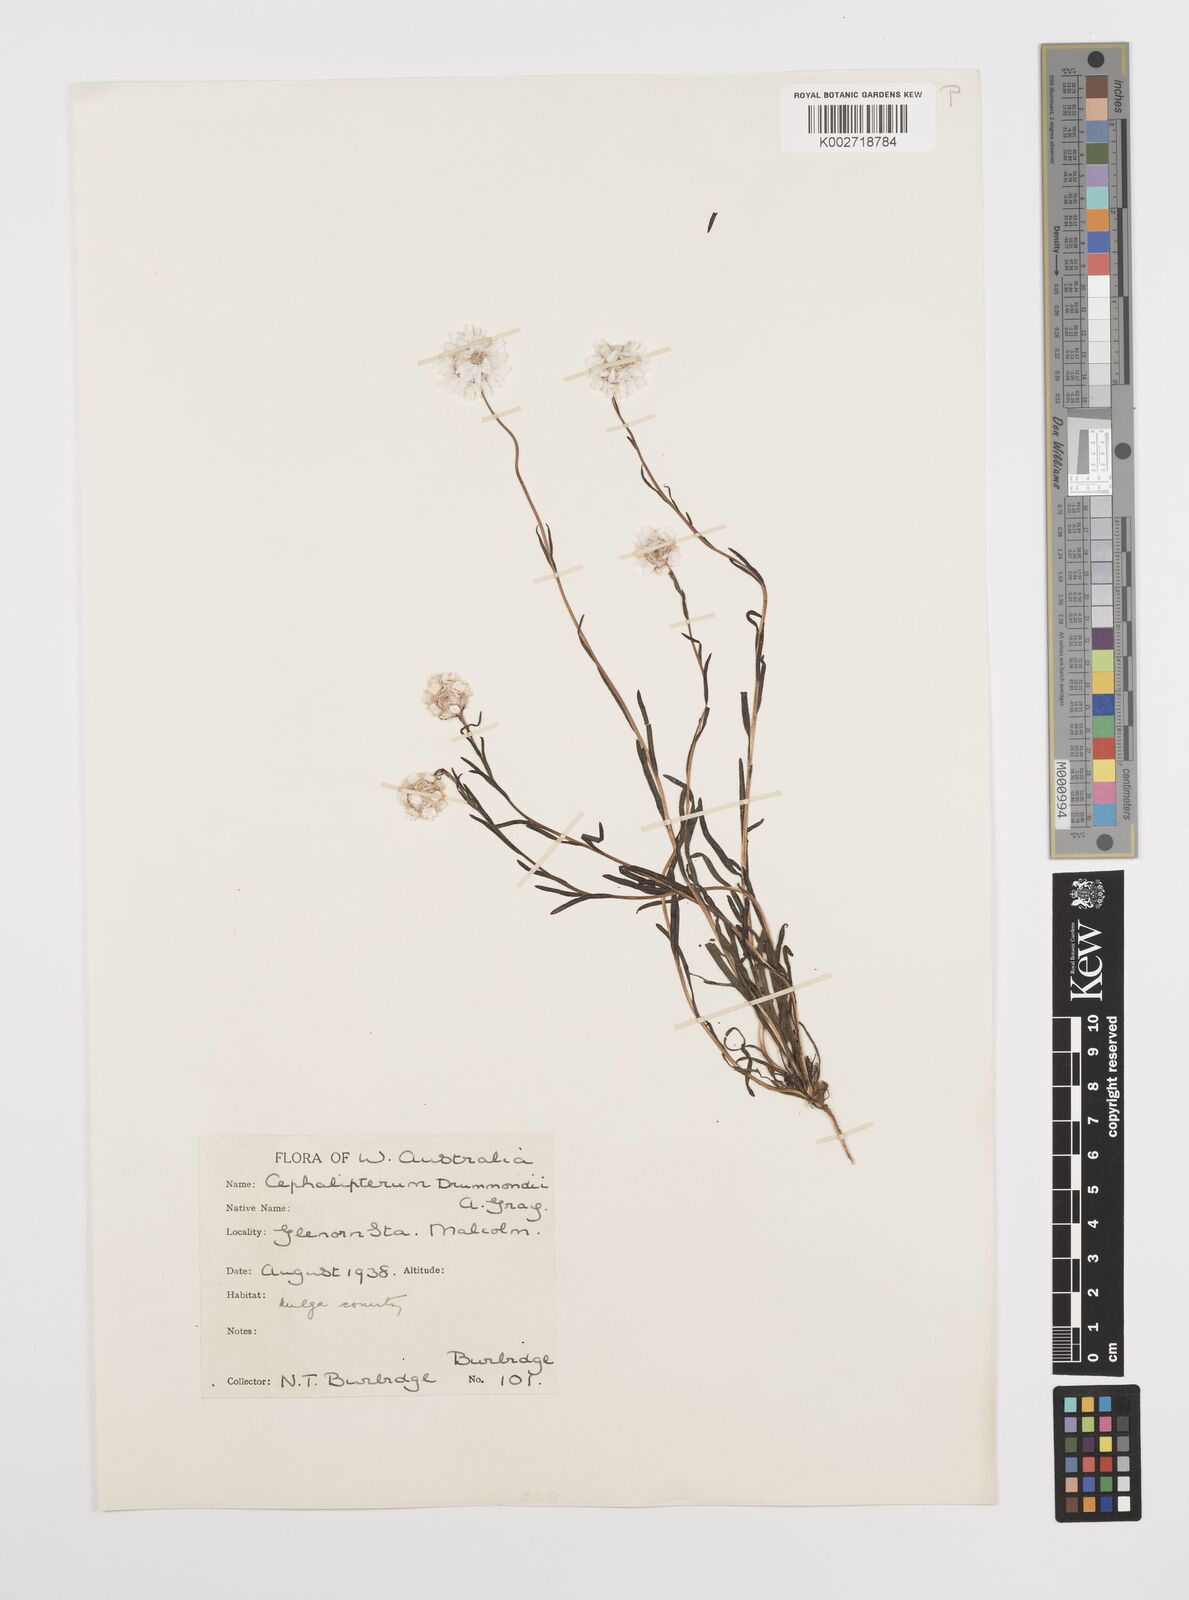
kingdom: Plantae
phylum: Tracheophyta
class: Magnoliopsida
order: Asterales
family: Asteraceae
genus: Cephalipterum
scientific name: Cephalipterum drummondii
